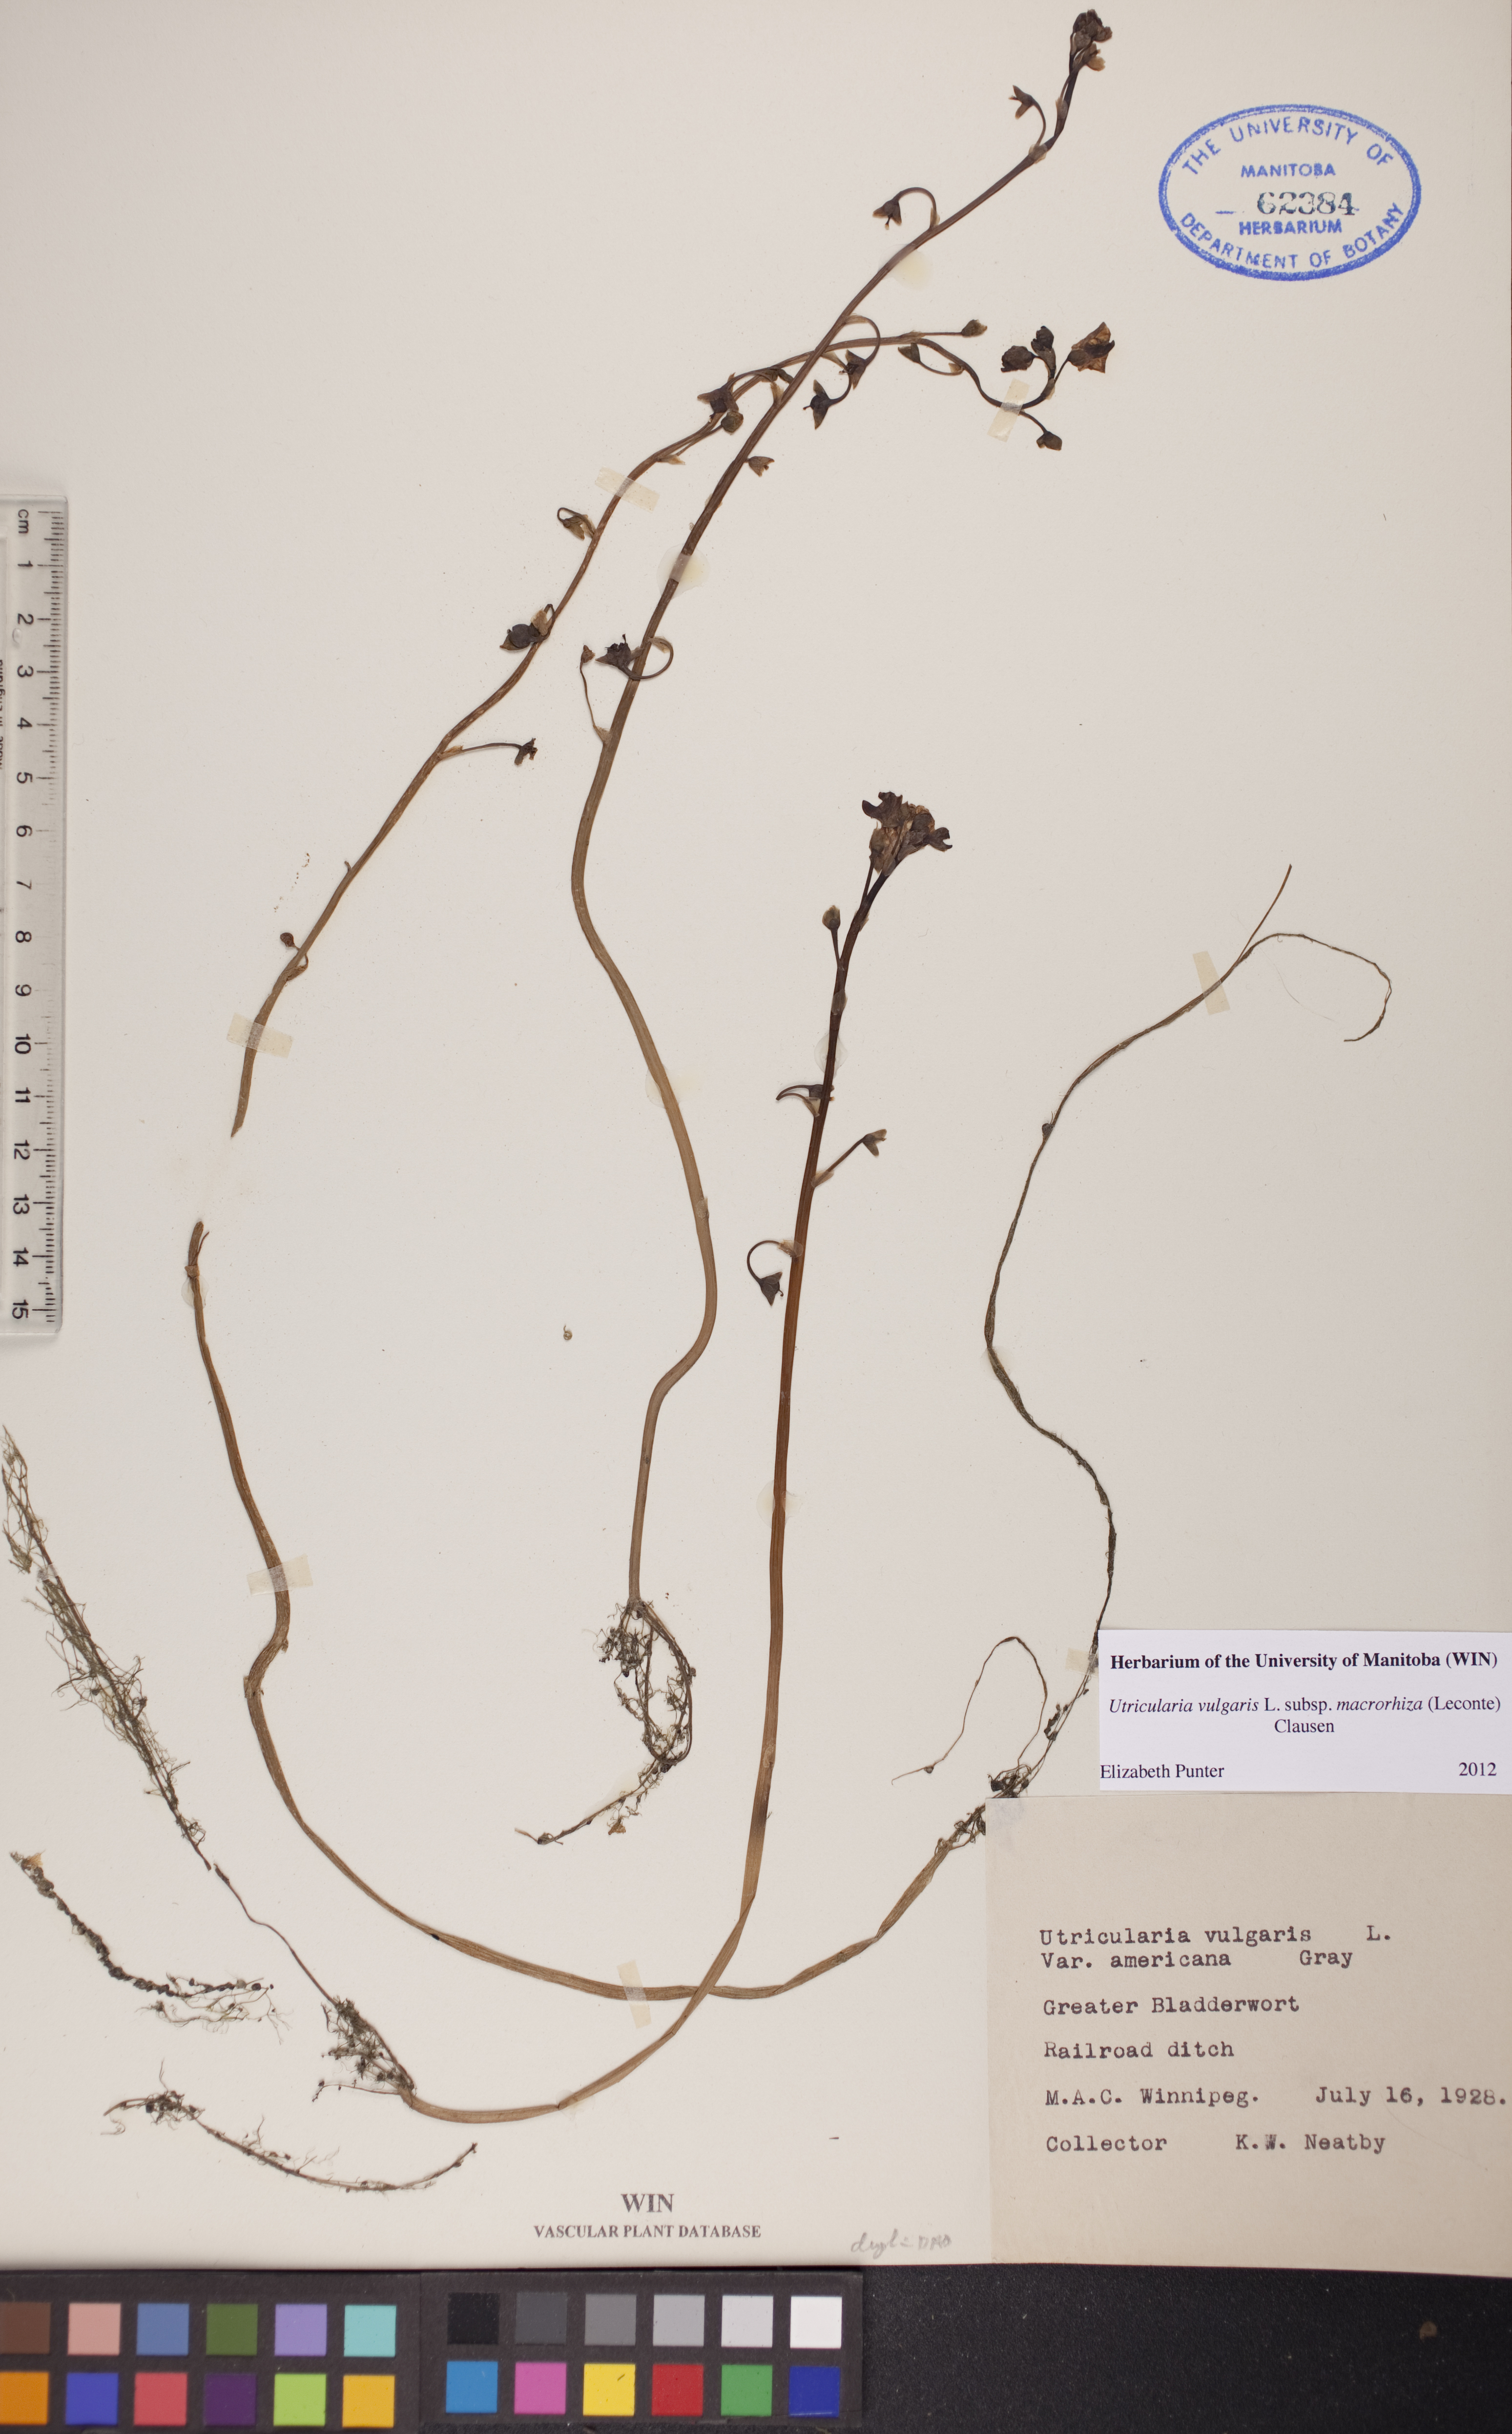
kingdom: Plantae
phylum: Tracheophyta
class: Magnoliopsida
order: Lamiales
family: Lentibulariaceae
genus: Utricularia
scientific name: Utricularia macrorhiza
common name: Common bladderwort
